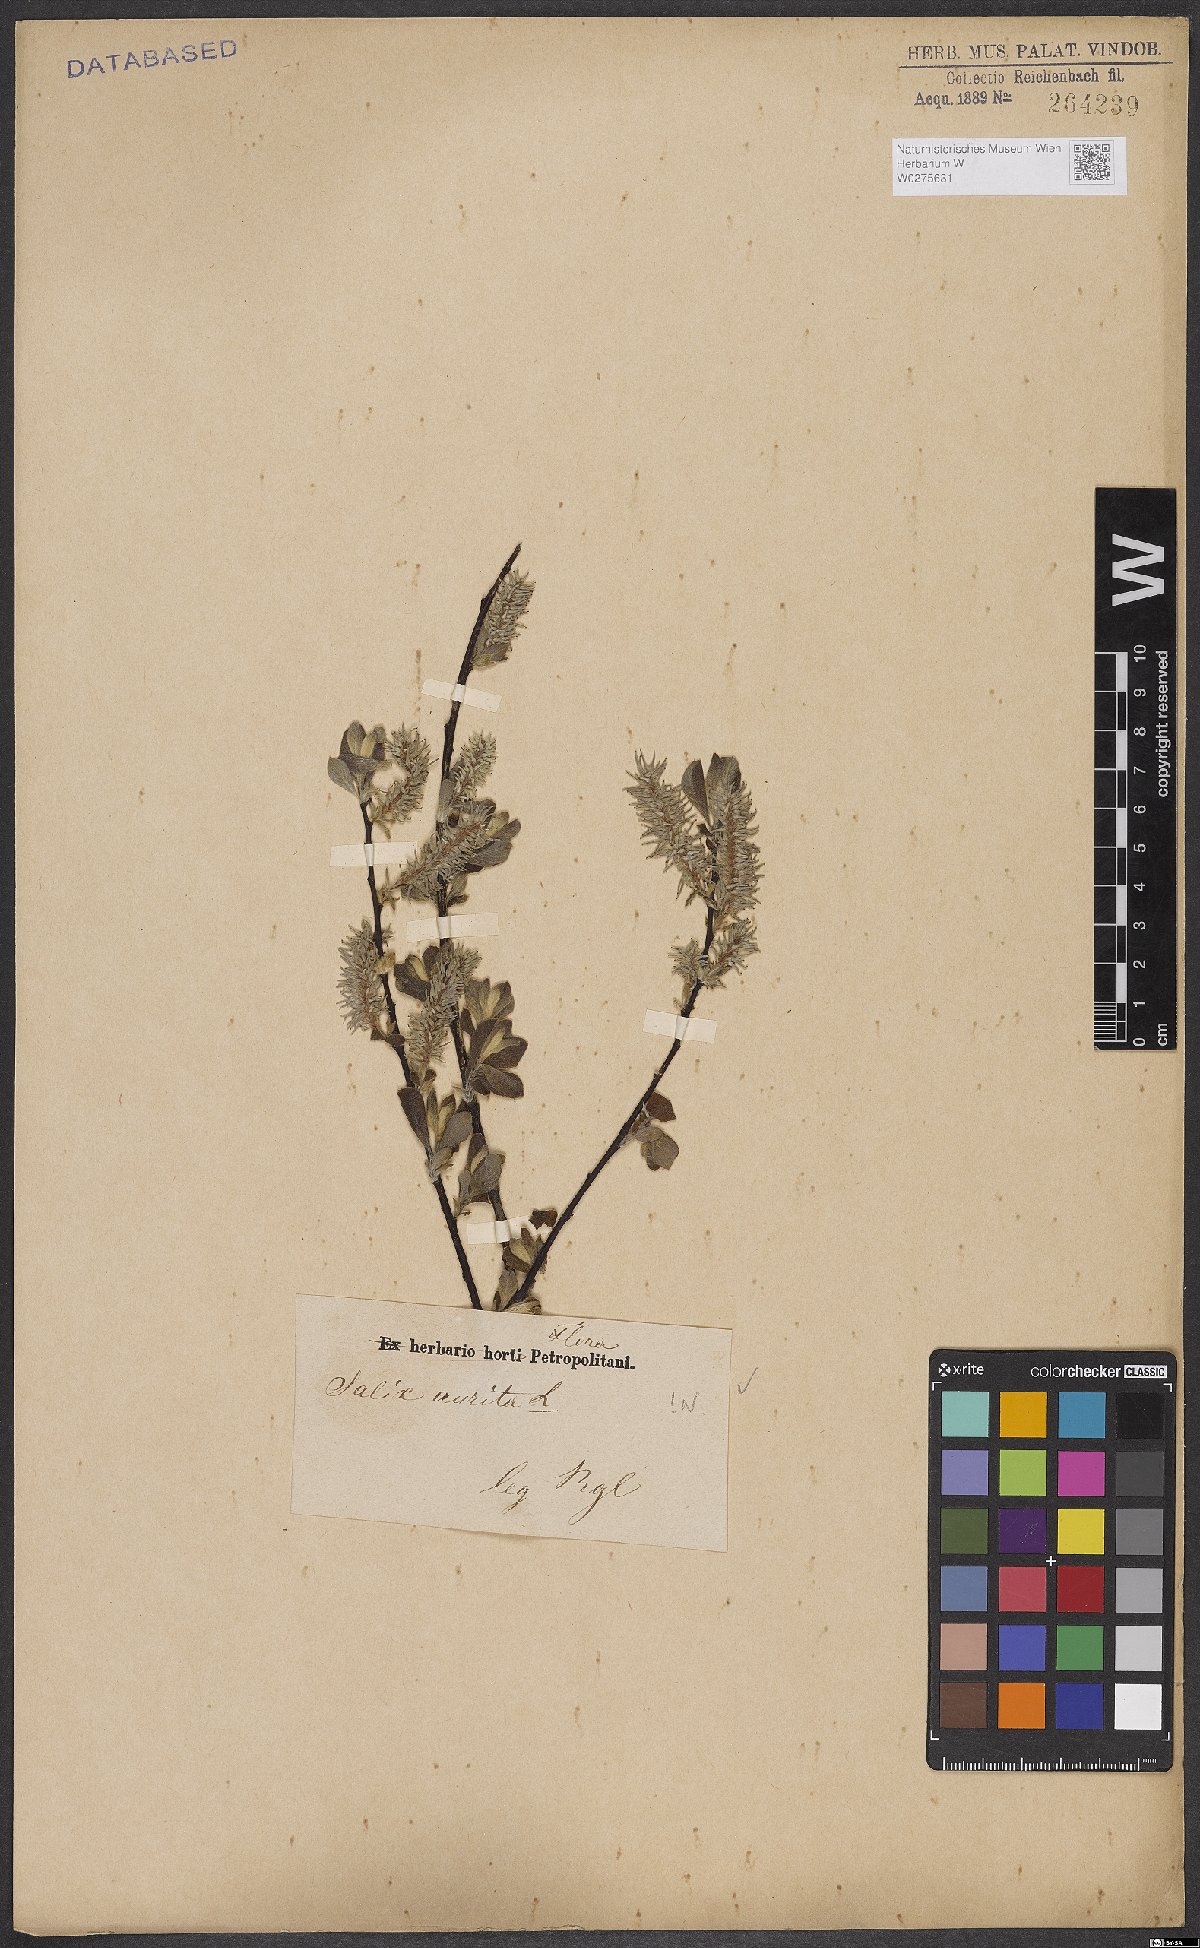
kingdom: Plantae
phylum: Tracheophyta
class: Magnoliopsida
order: Malpighiales
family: Salicaceae
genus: Salix
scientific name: Salix aurita
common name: Eared willow
